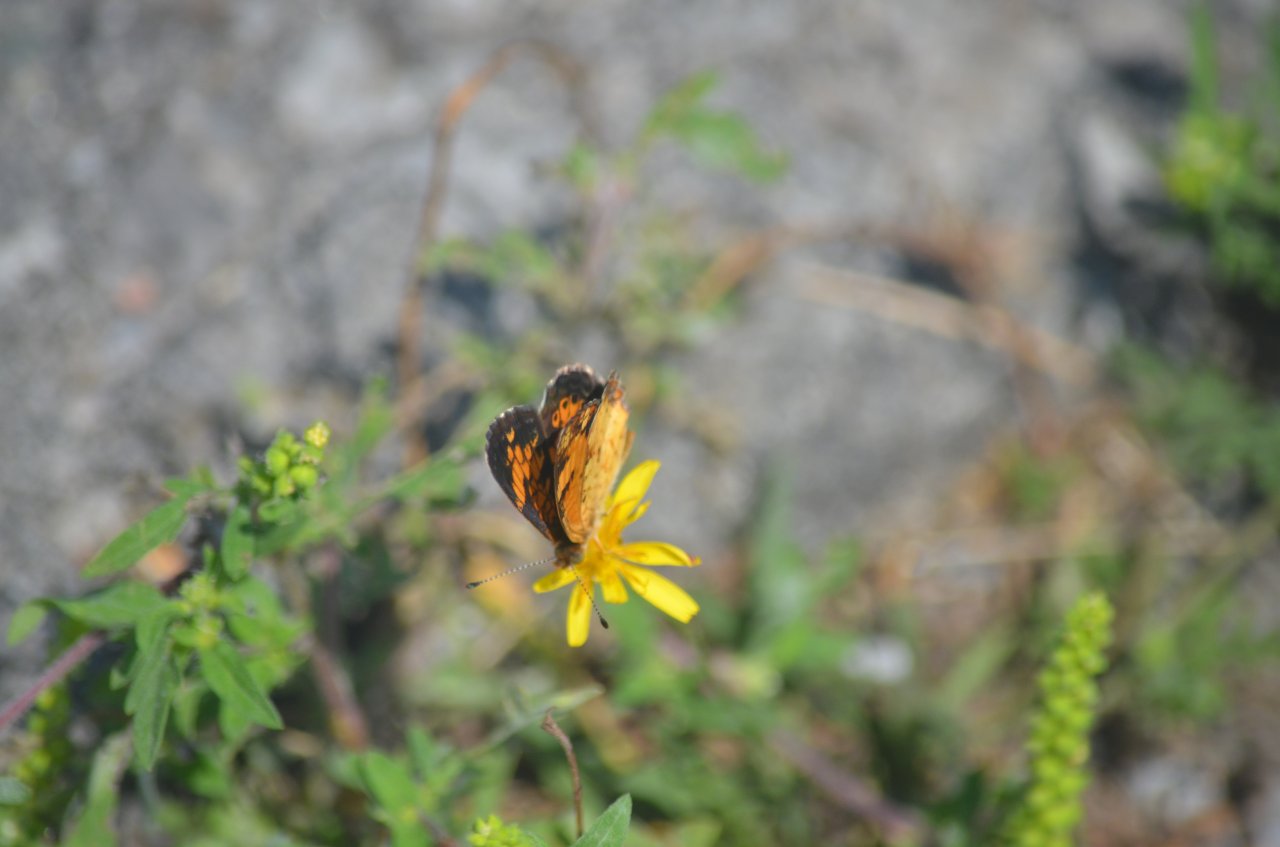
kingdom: Animalia
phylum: Arthropoda
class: Insecta
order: Lepidoptera
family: Nymphalidae
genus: Phyciodes
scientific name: Phyciodes tharos
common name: Northern Crescent
